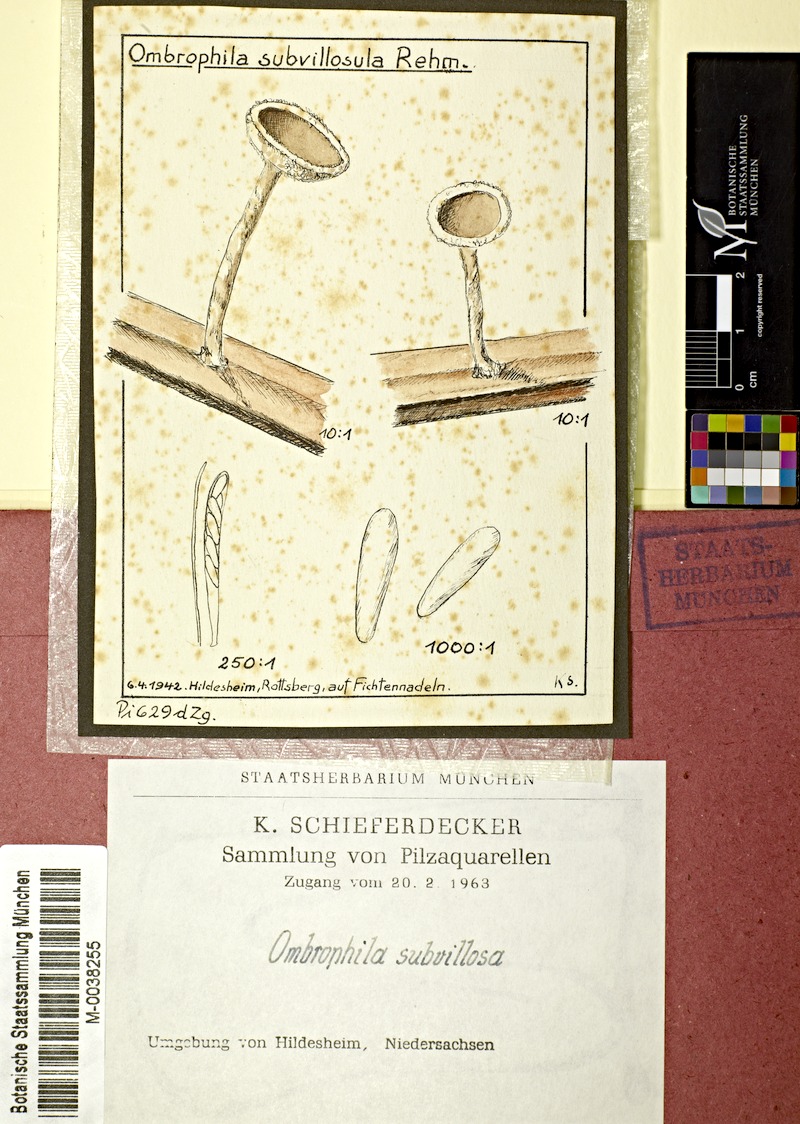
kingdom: Plantae
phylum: Tracheophyta
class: Pinopsida
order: Pinales
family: Pinaceae
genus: Picea
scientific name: Picea
